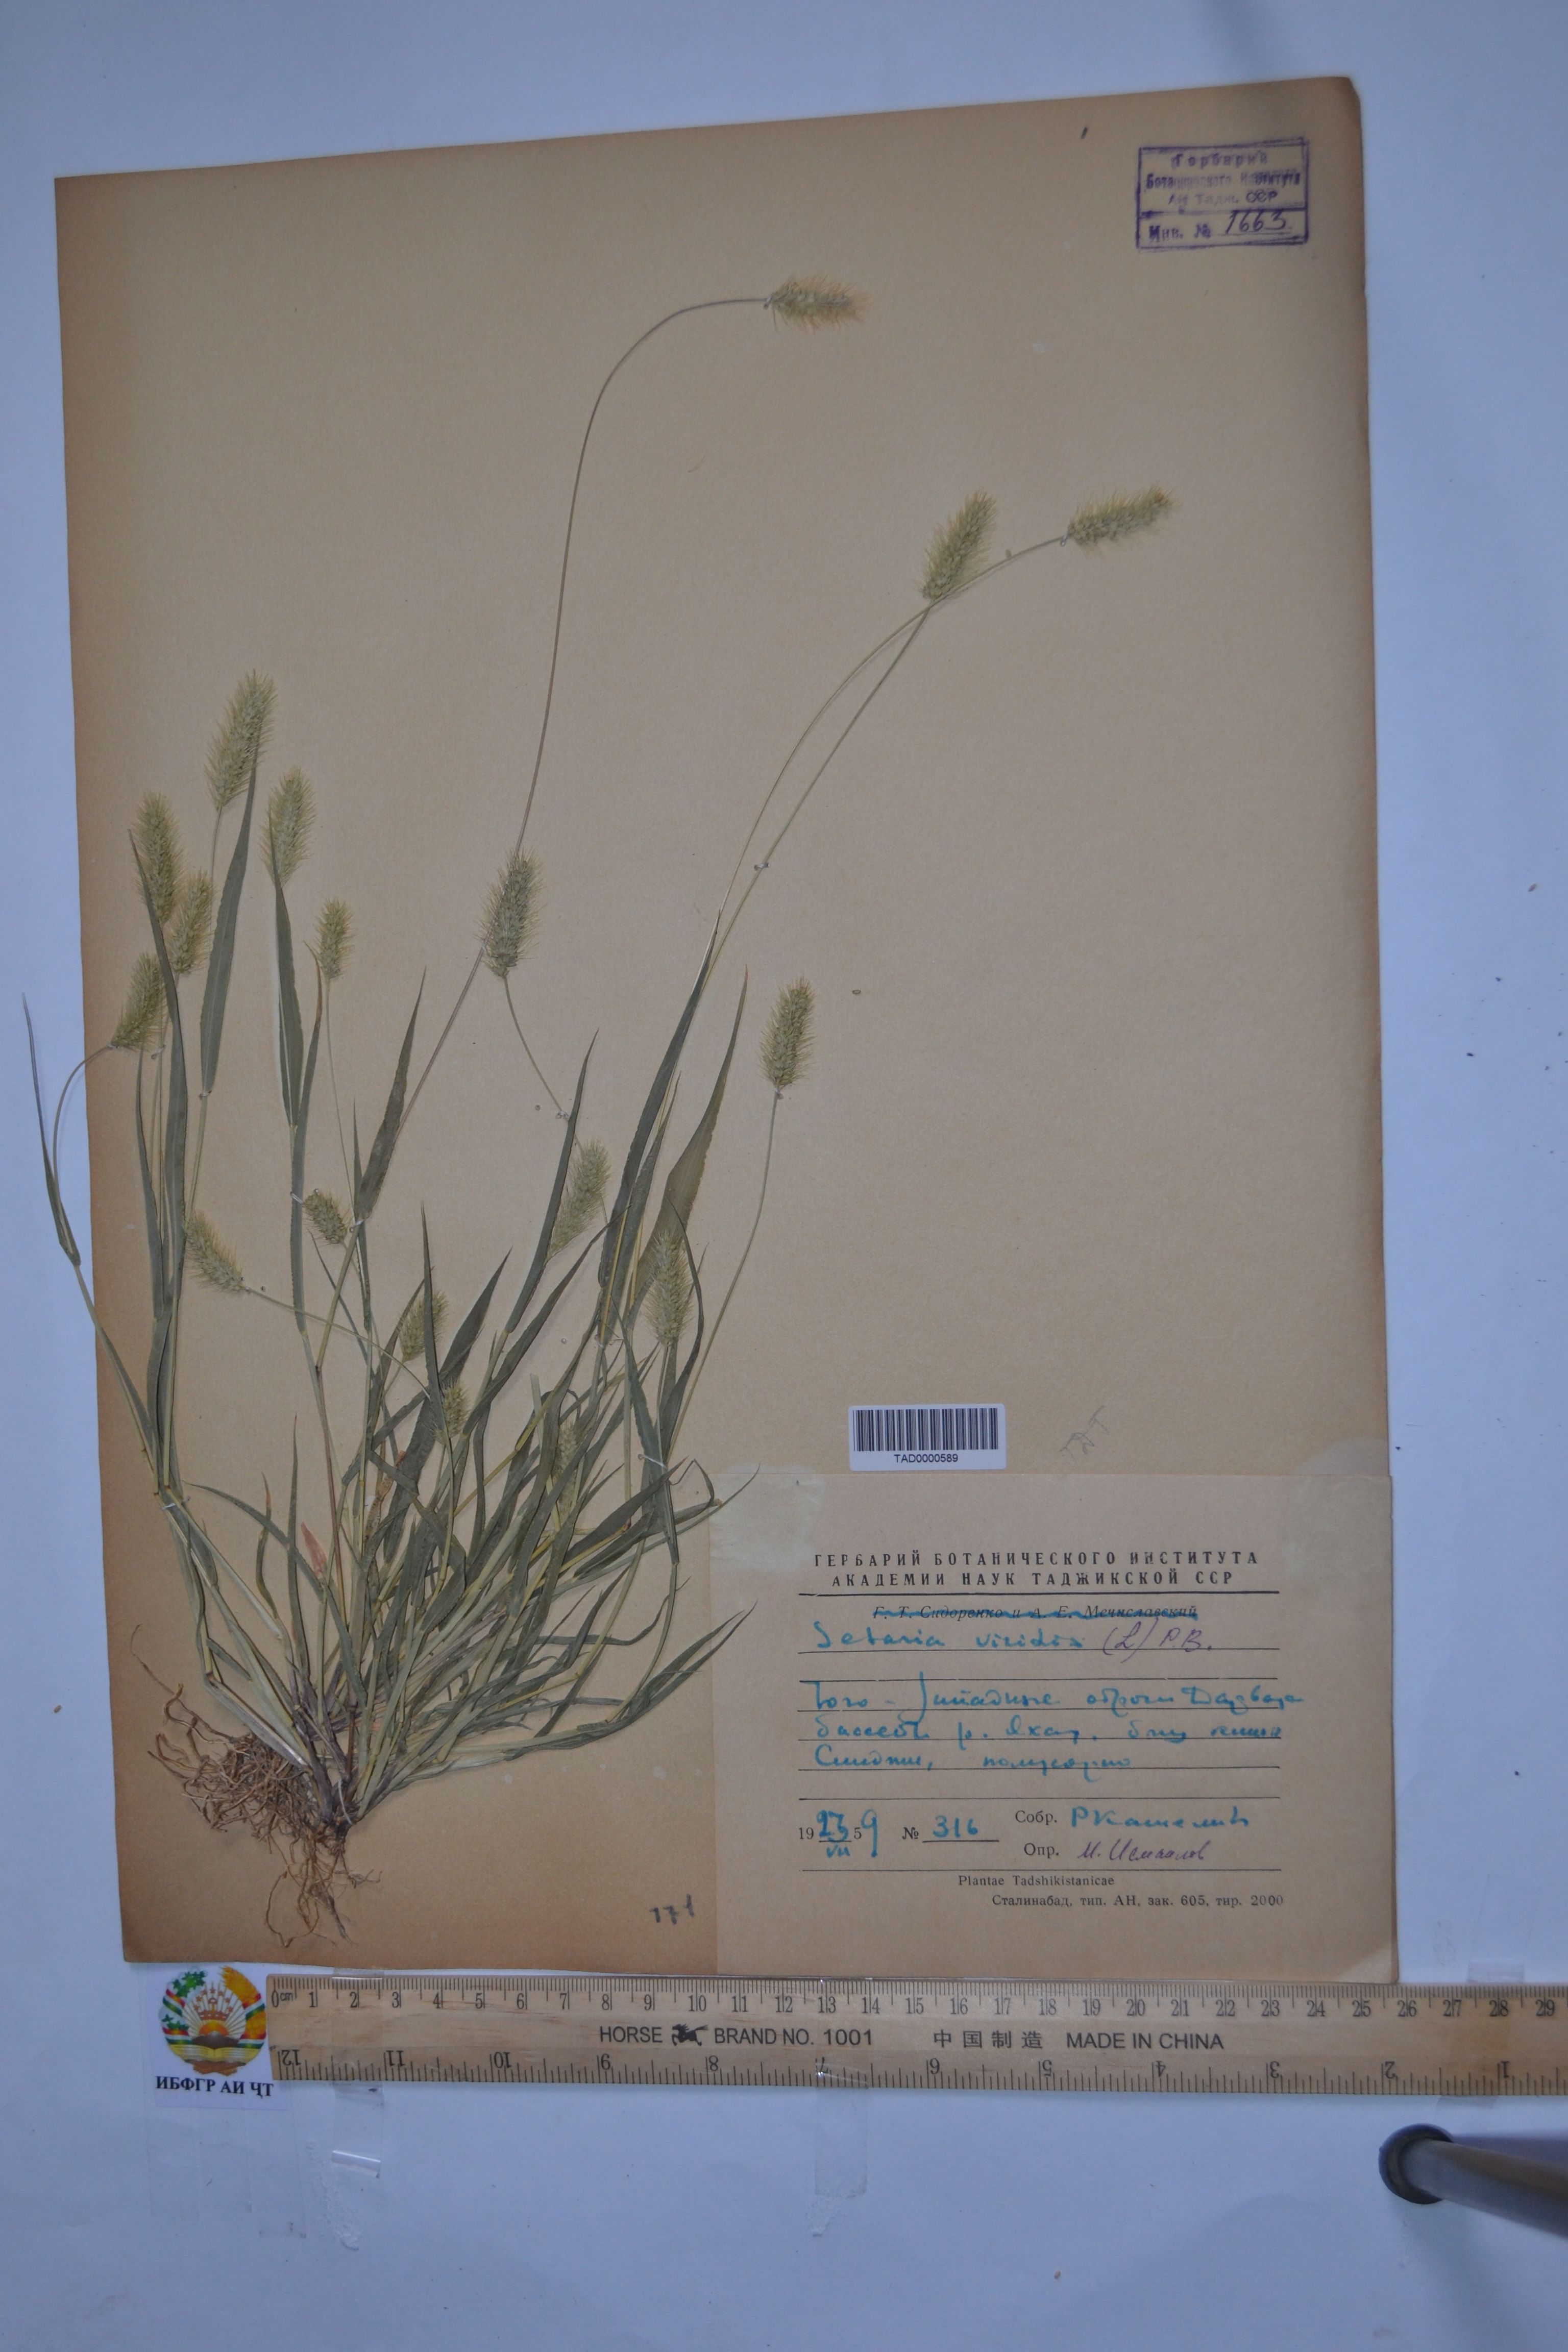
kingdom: Plantae
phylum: Tracheophyta
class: Liliopsida
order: Poales
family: Poaceae
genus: Setaria
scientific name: Setaria viridis
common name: Green bristlegrass
